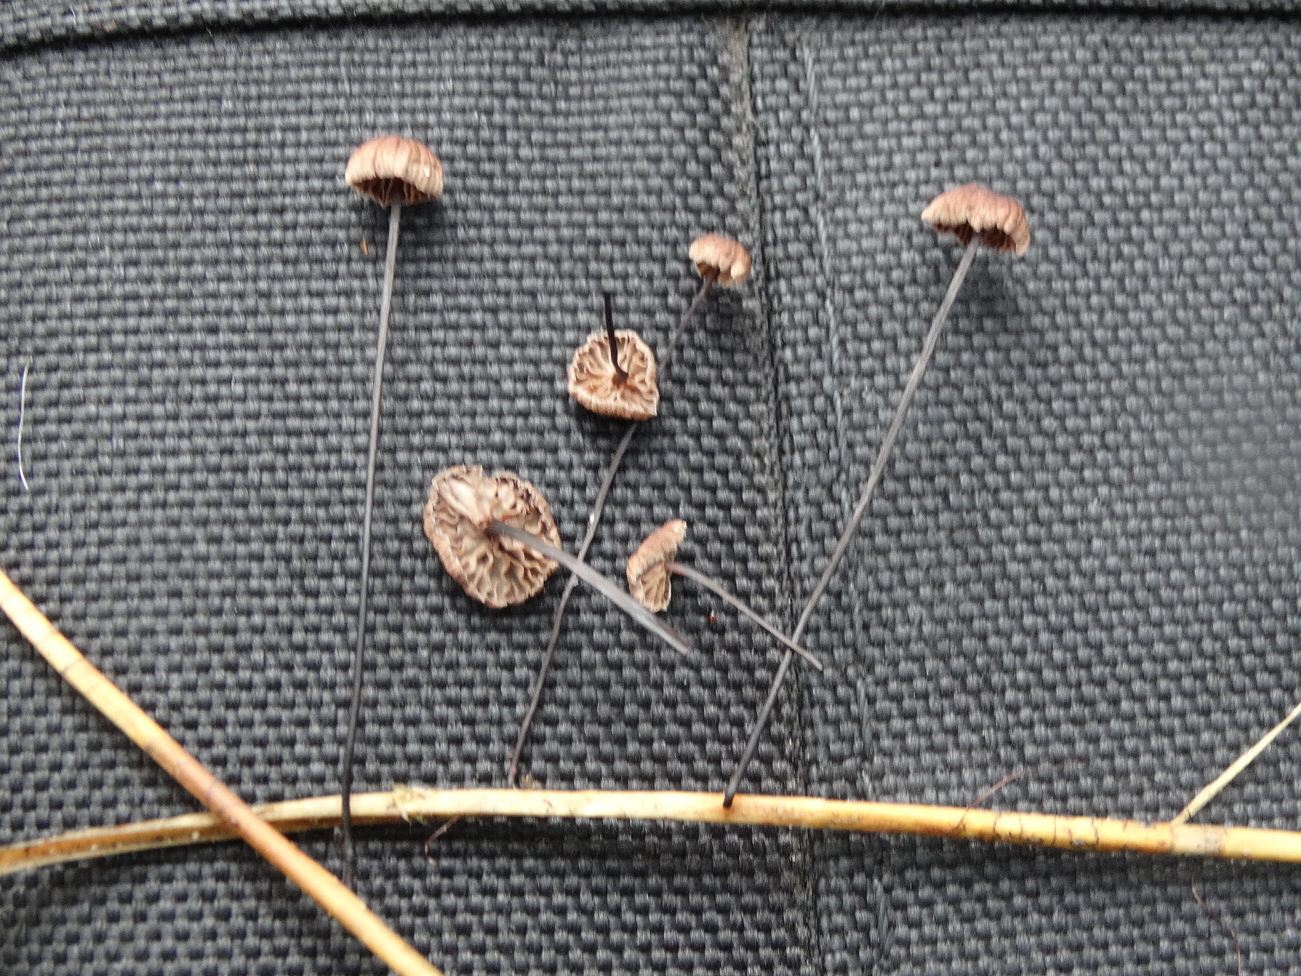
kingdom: Fungi
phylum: Basidiomycota
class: Agaricomycetes
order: Agaricales
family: Omphalotaceae
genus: Gymnopus
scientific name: Gymnopus androsaceus
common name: trådstokket fladhat
